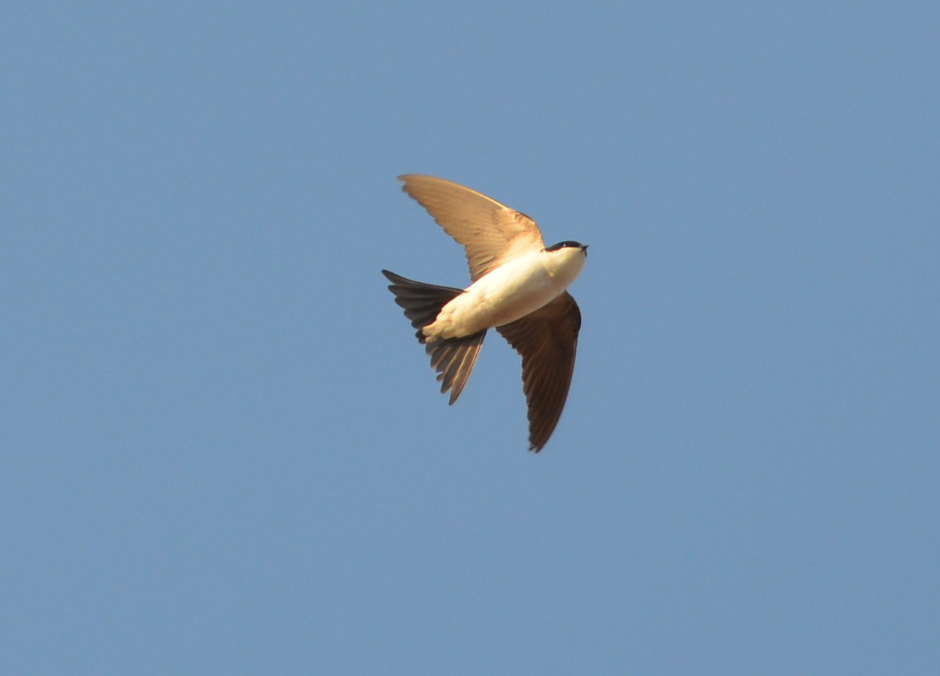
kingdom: Animalia
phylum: Chordata
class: Aves
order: Passeriformes
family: Hirundinidae
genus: Delichon
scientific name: Delichon urbicum
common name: Common house martin
